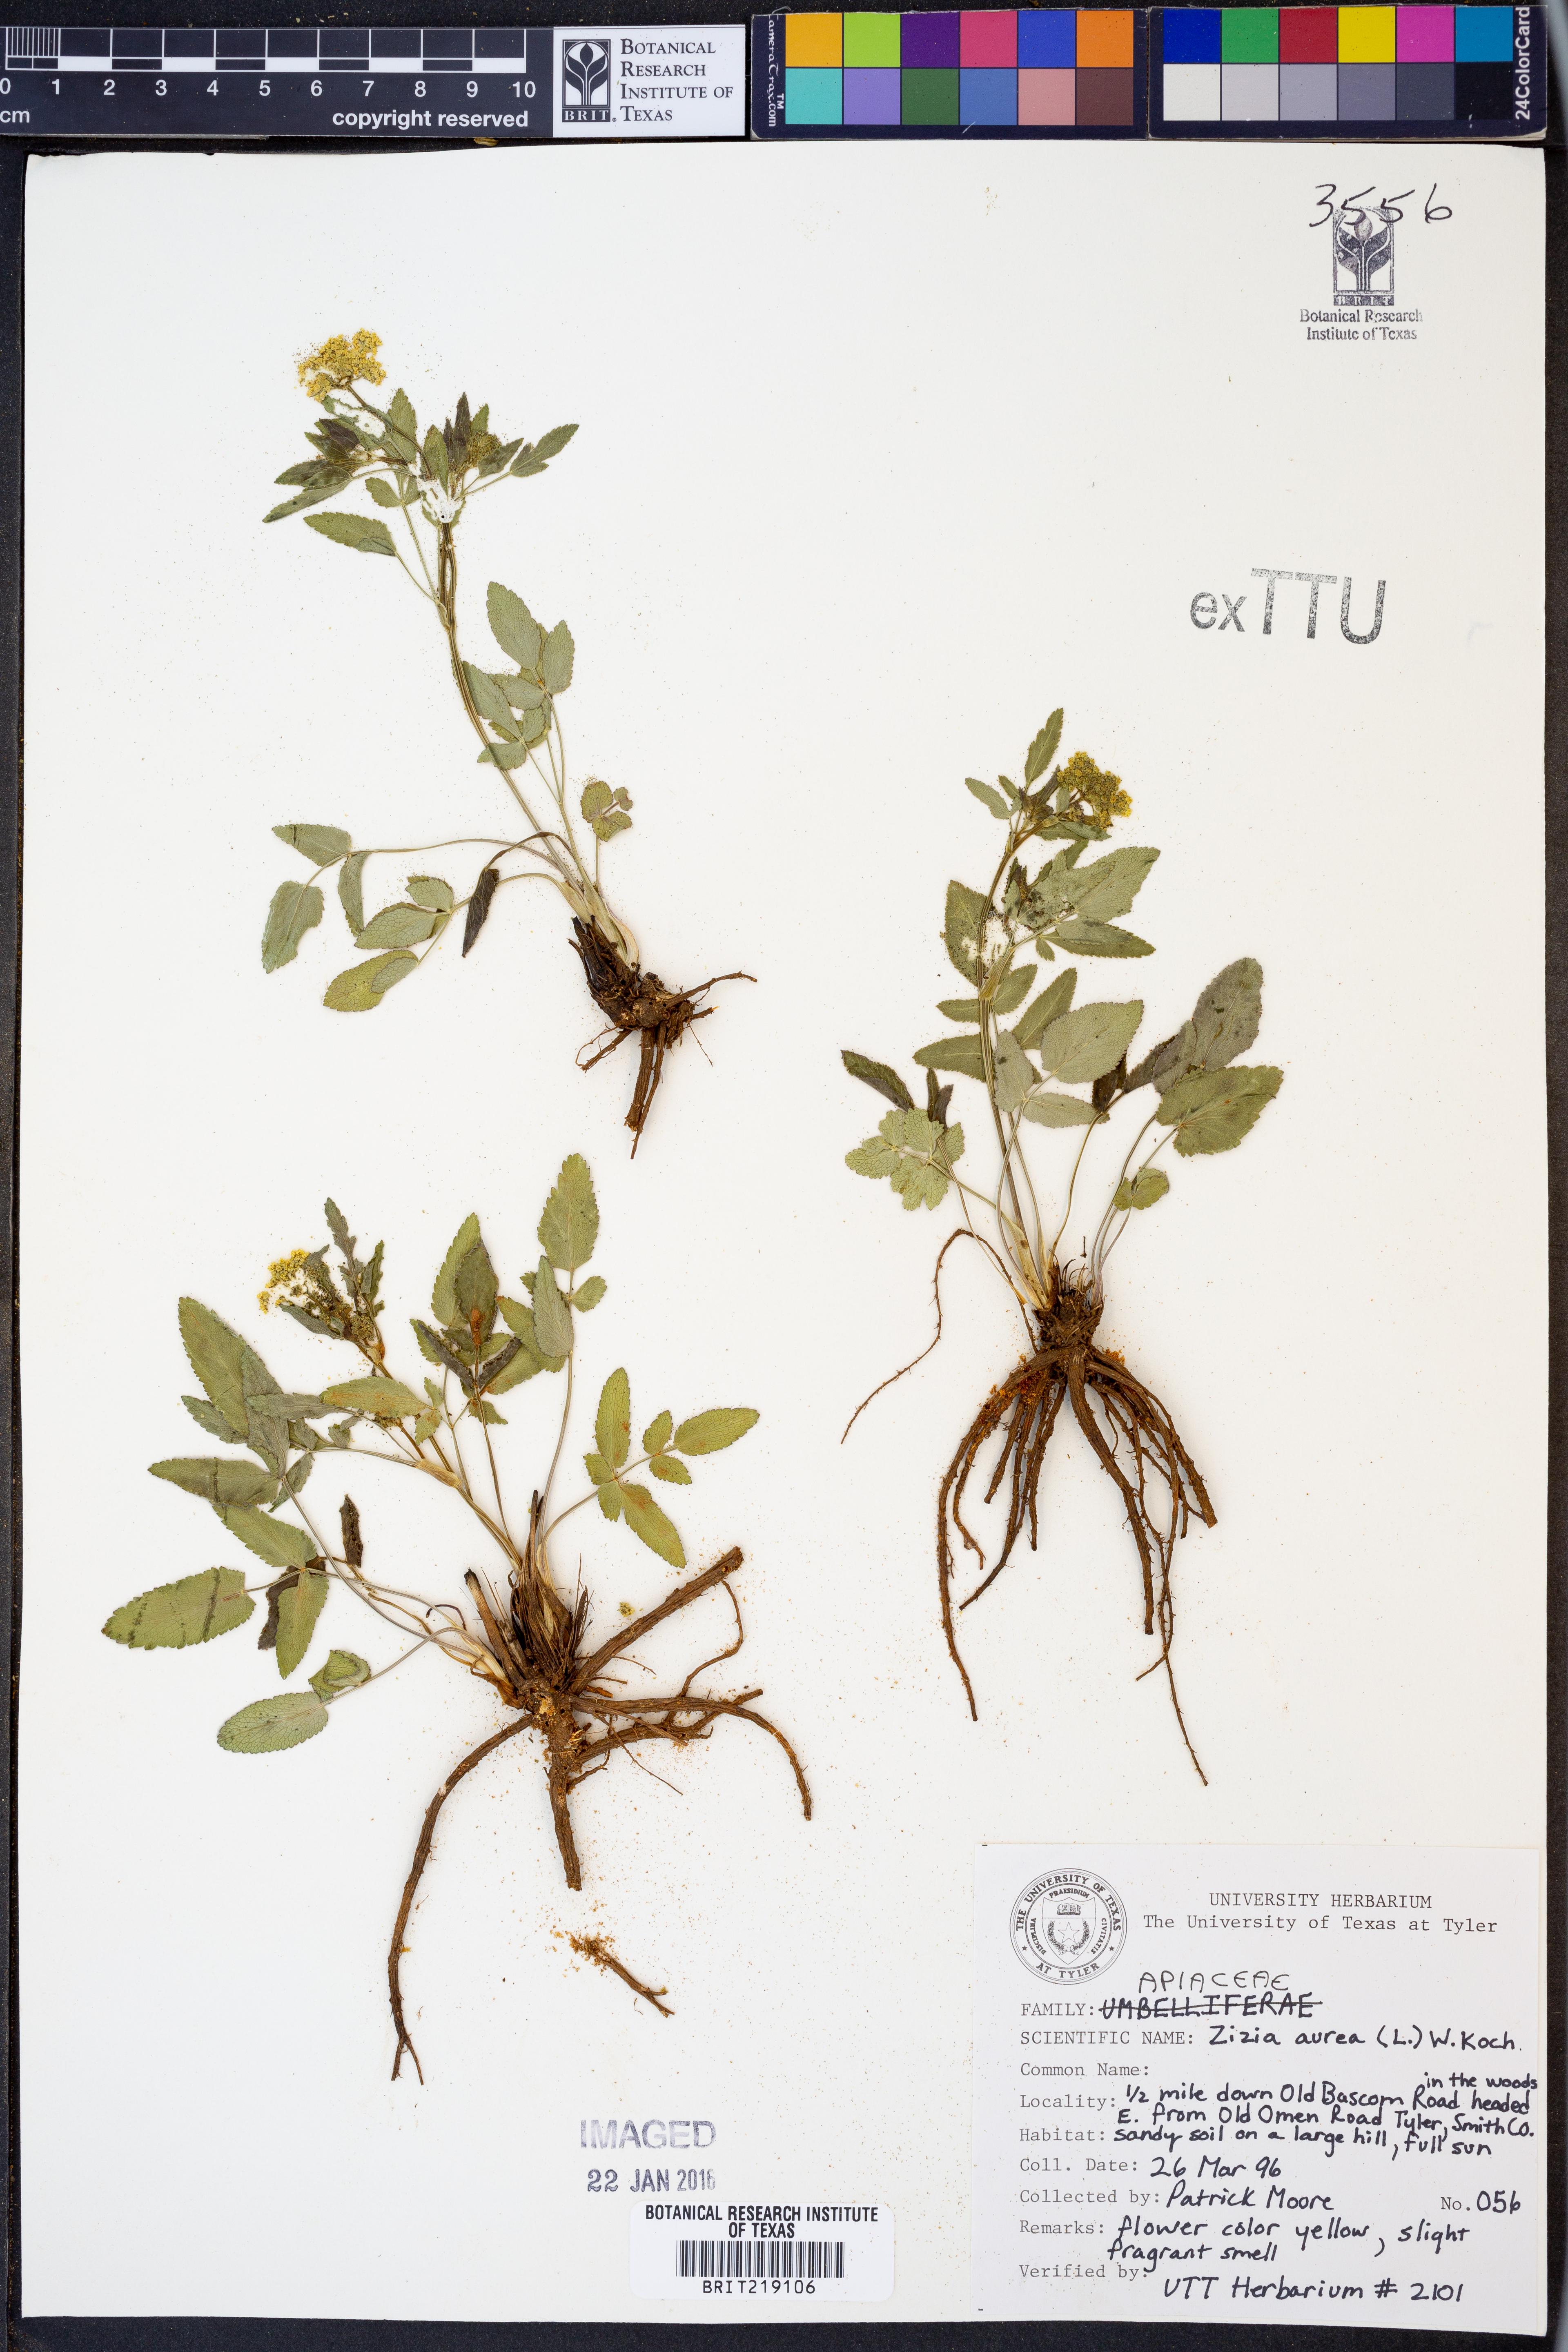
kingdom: Plantae
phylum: Tracheophyta
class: Magnoliopsida
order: Apiales
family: Apiaceae
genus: Zizia
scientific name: Zizia aurea
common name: Golden alexanders
